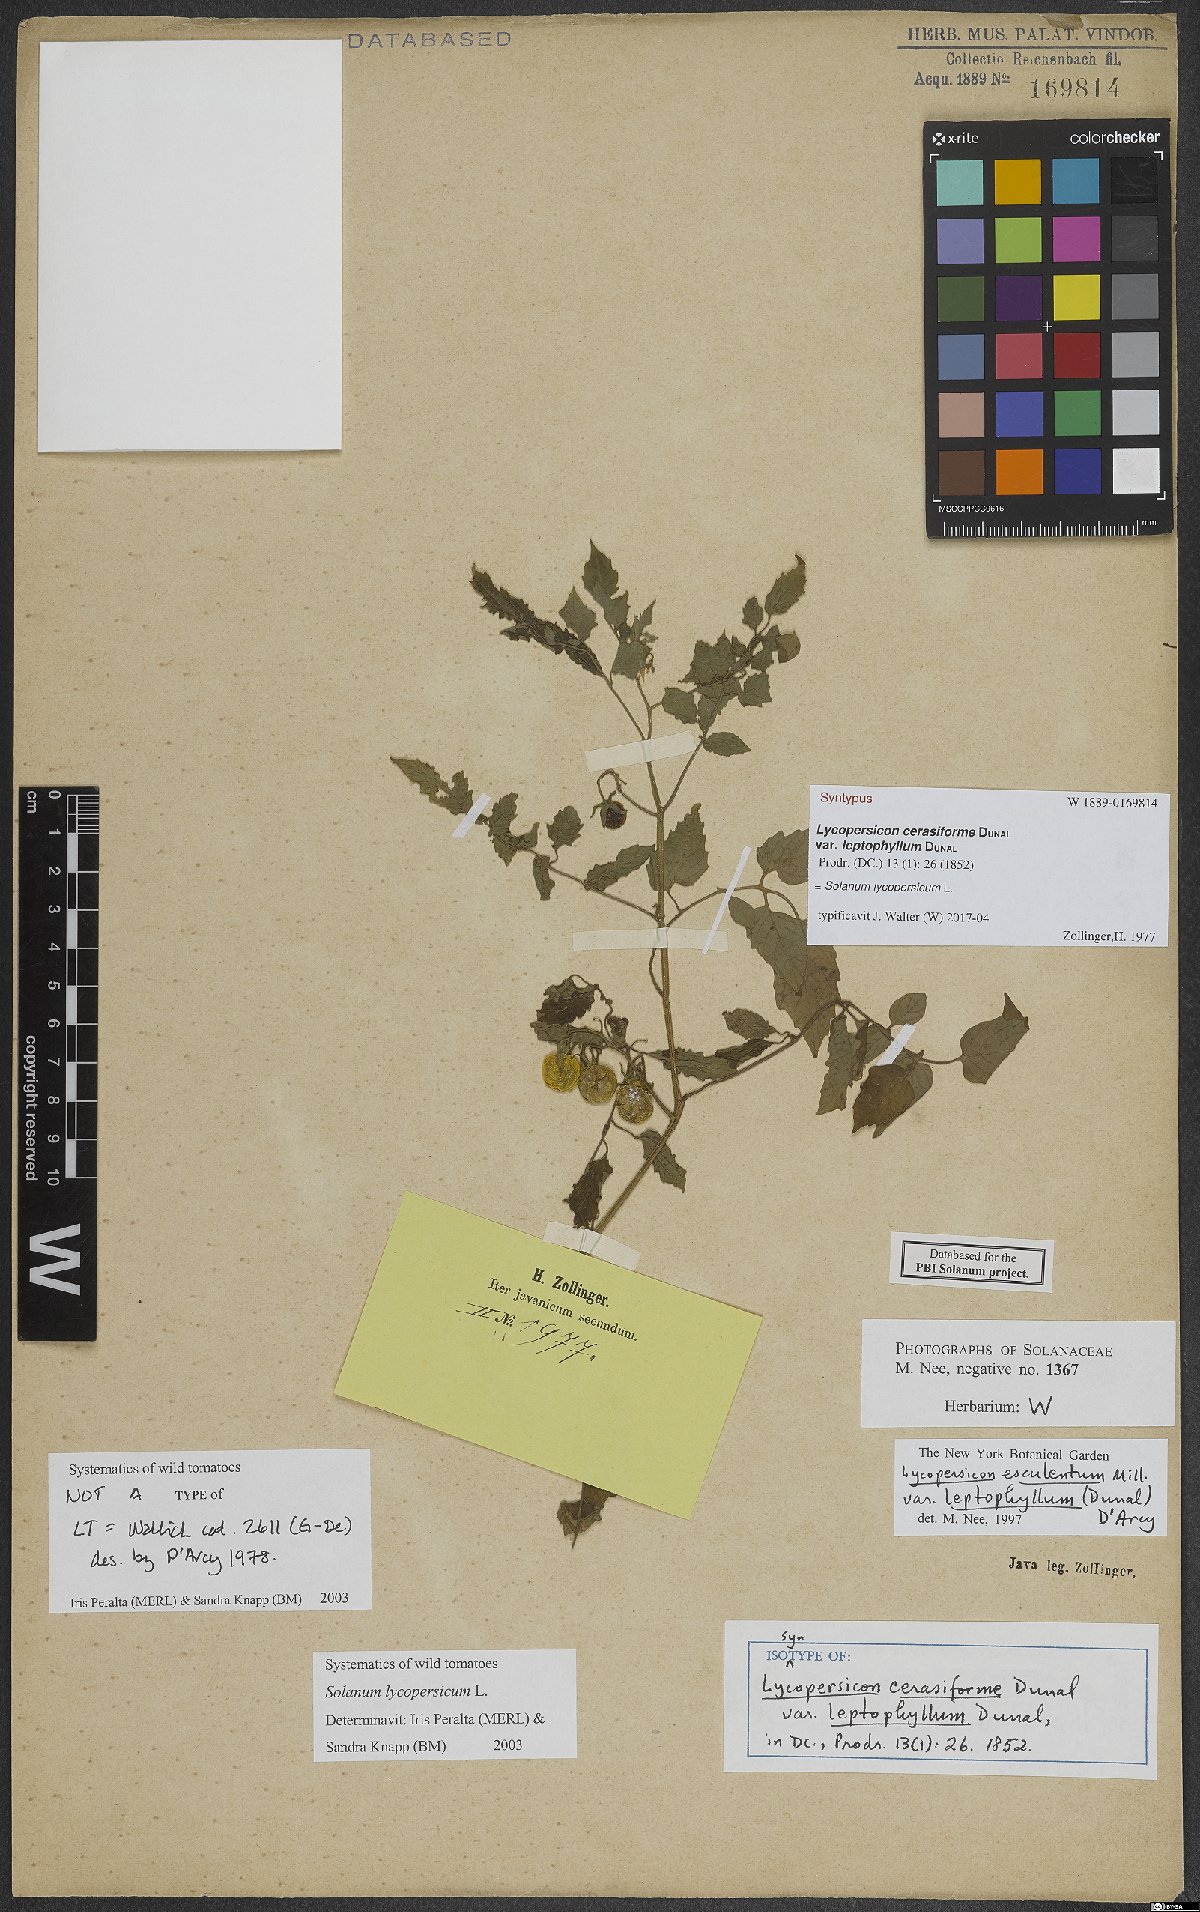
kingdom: Plantae
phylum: Tracheophyta
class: Magnoliopsida
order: Solanales
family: Solanaceae
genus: Solanum
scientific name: Solanum lycopersicum
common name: Garden tomato
